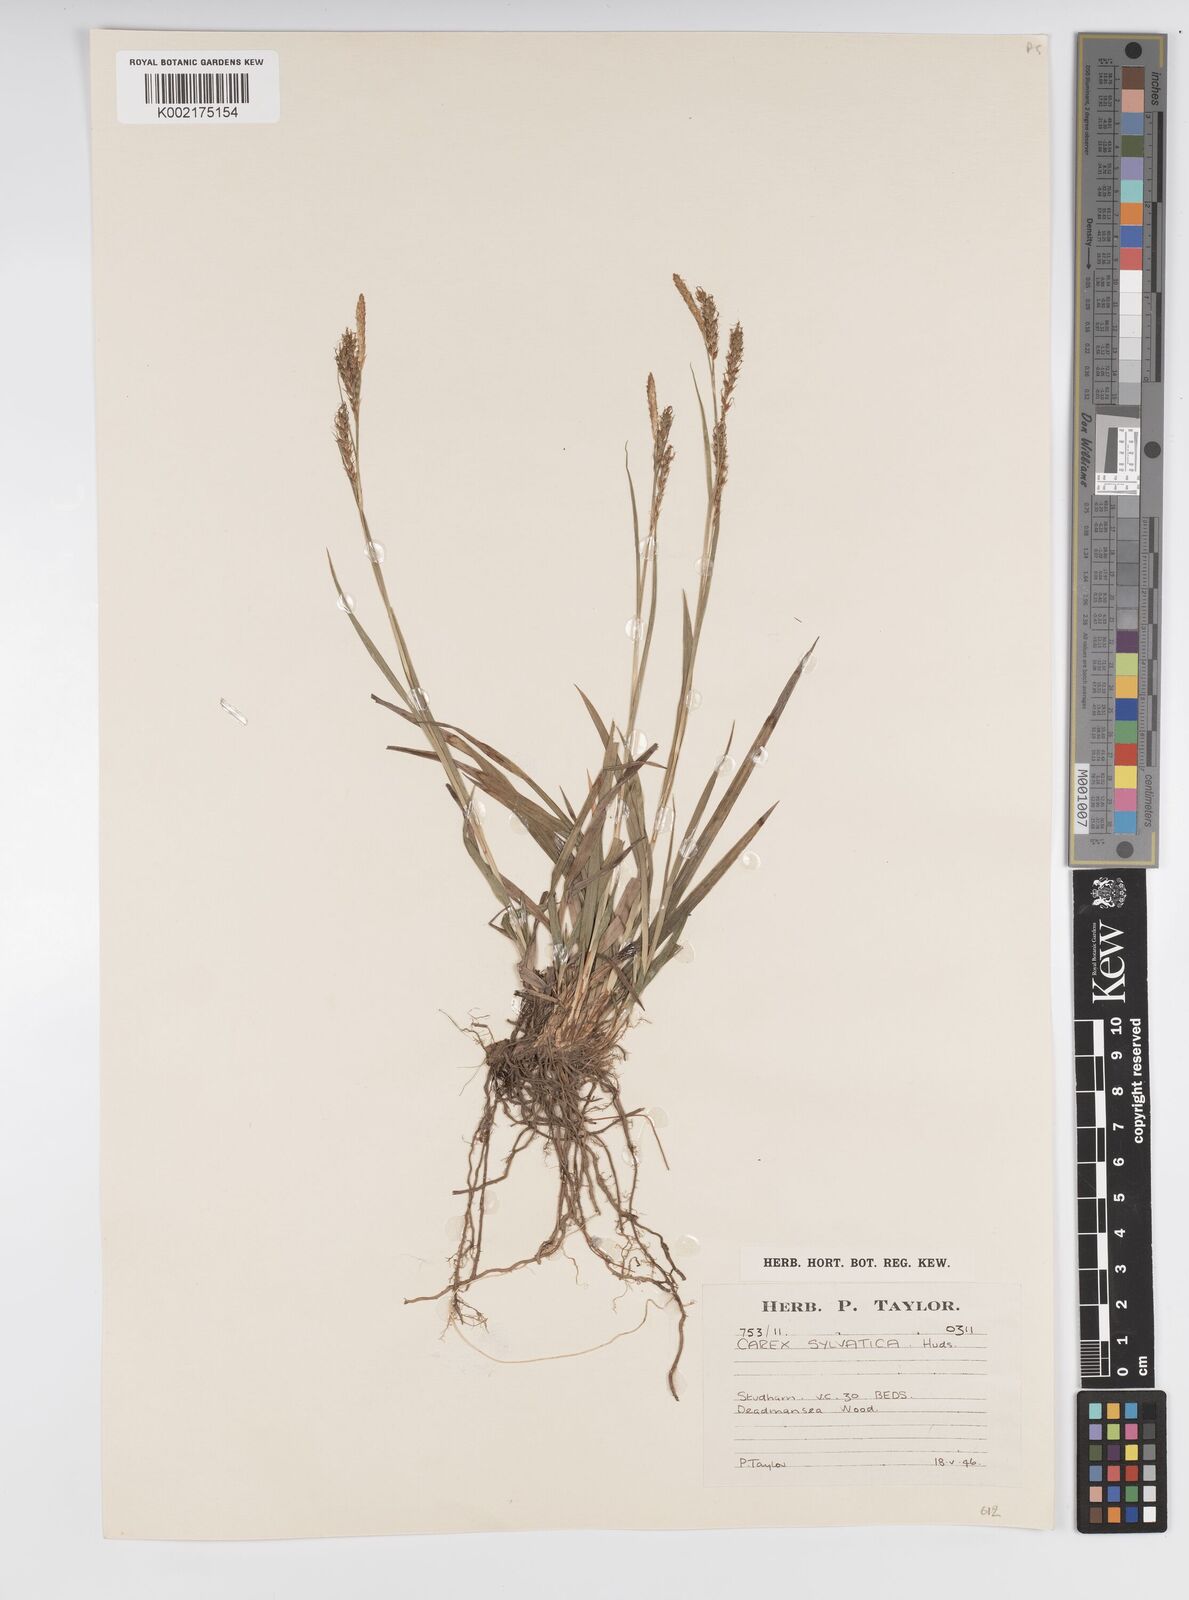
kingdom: Plantae
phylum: Tracheophyta
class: Liliopsida
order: Poales
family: Cyperaceae
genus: Carex
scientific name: Carex sylvatica
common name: Wood-sedge
